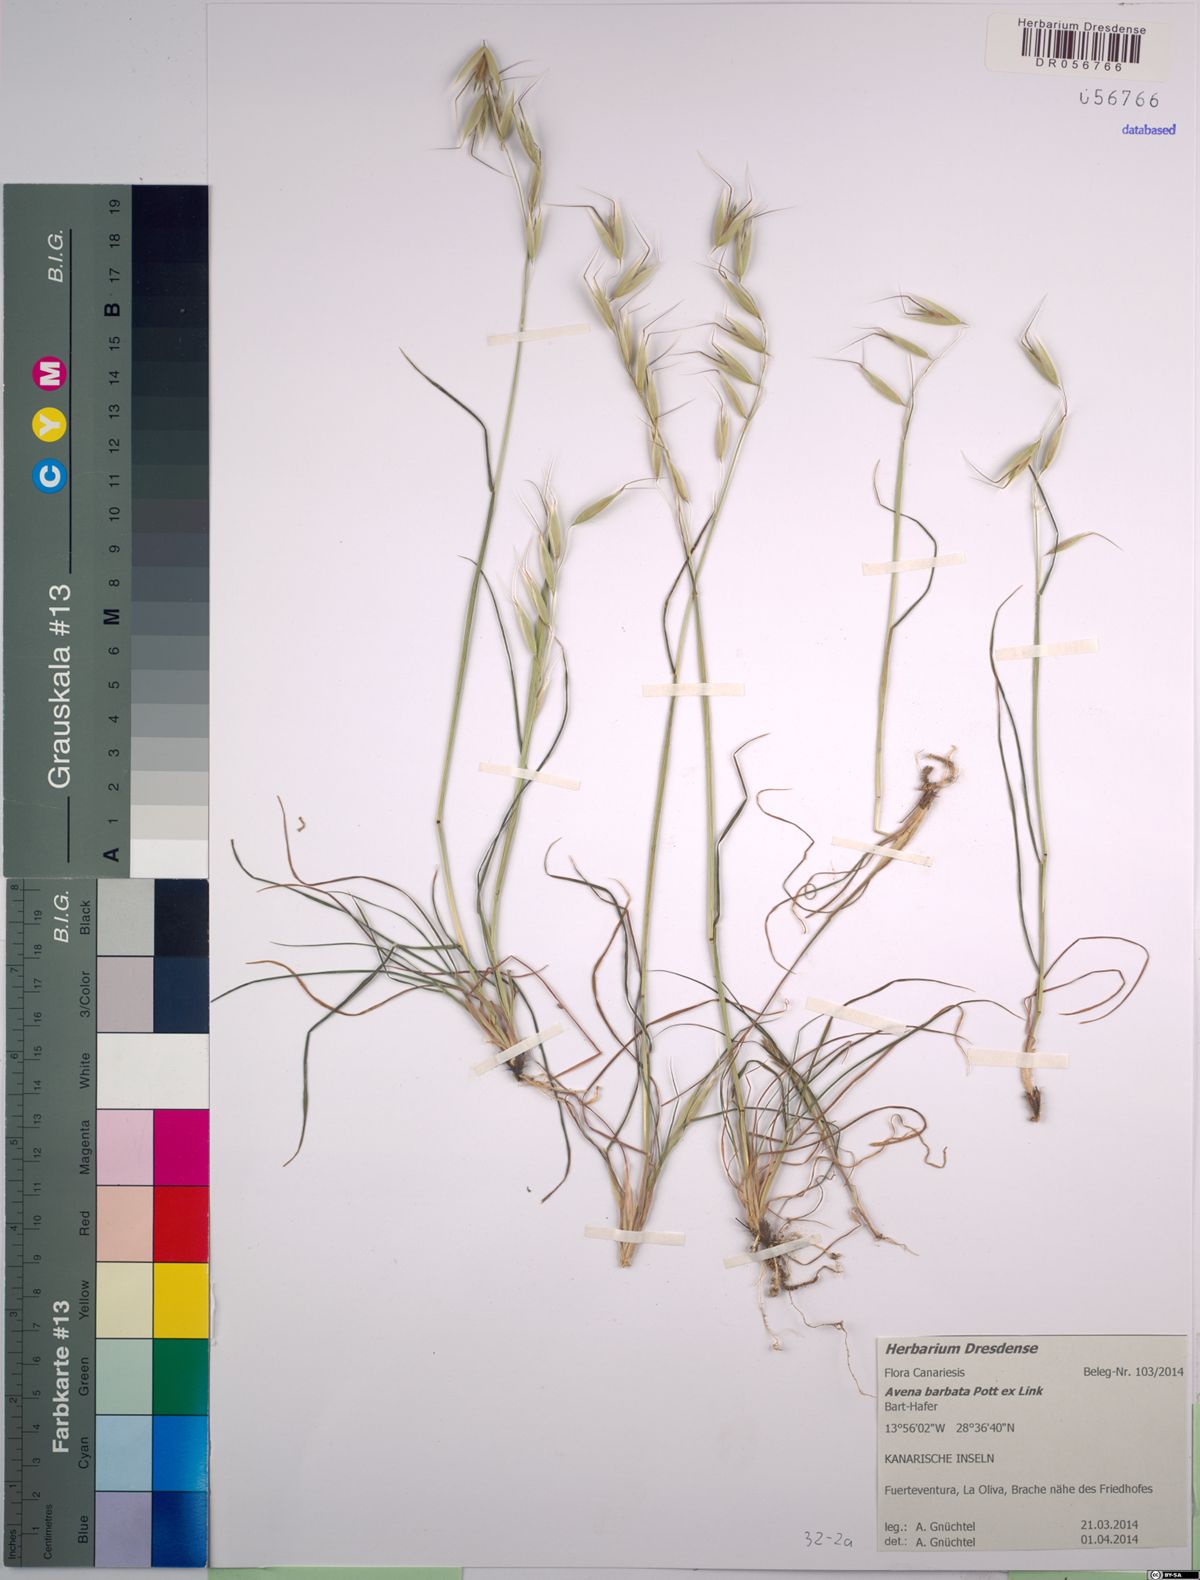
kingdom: Plantae
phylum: Tracheophyta
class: Liliopsida
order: Poales
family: Poaceae
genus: Avena
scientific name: Avena barbata
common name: Slender oat
